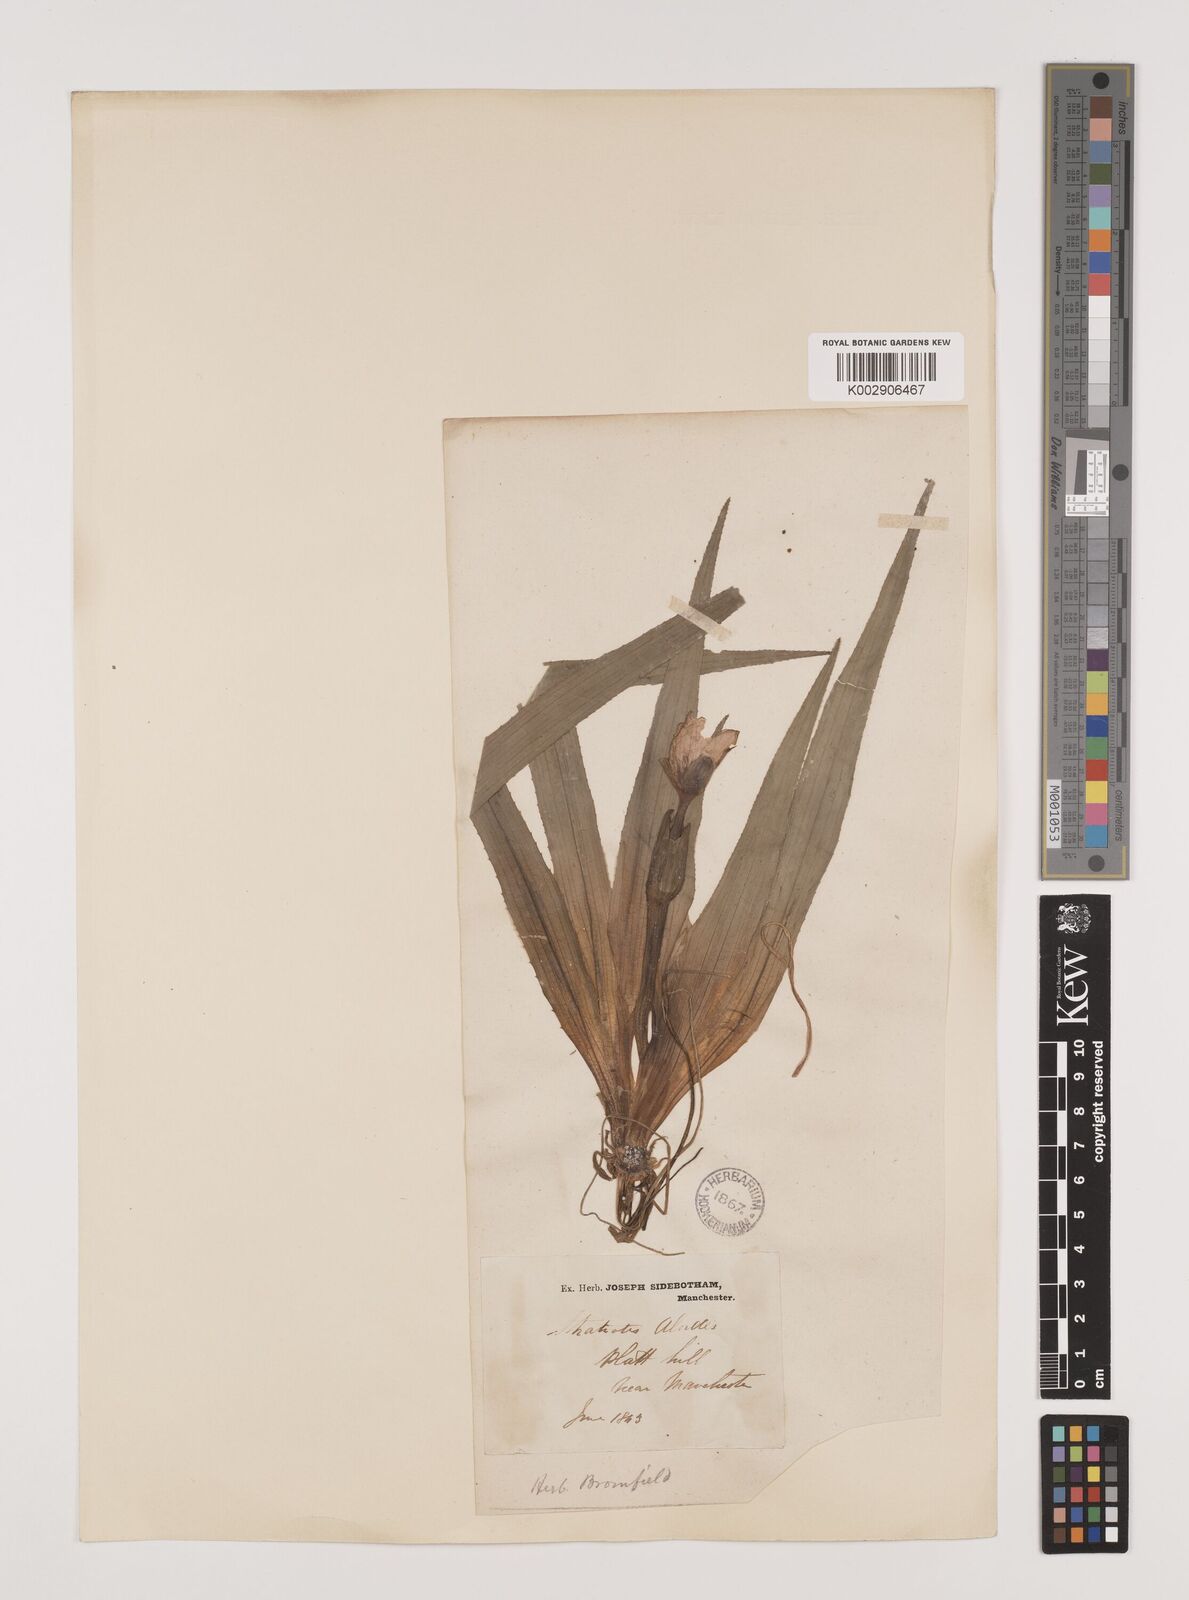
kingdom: Plantae
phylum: Tracheophyta
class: Liliopsida
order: Alismatales
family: Hydrocharitaceae
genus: Stratiotes
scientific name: Stratiotes aloides
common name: Water-soldier
